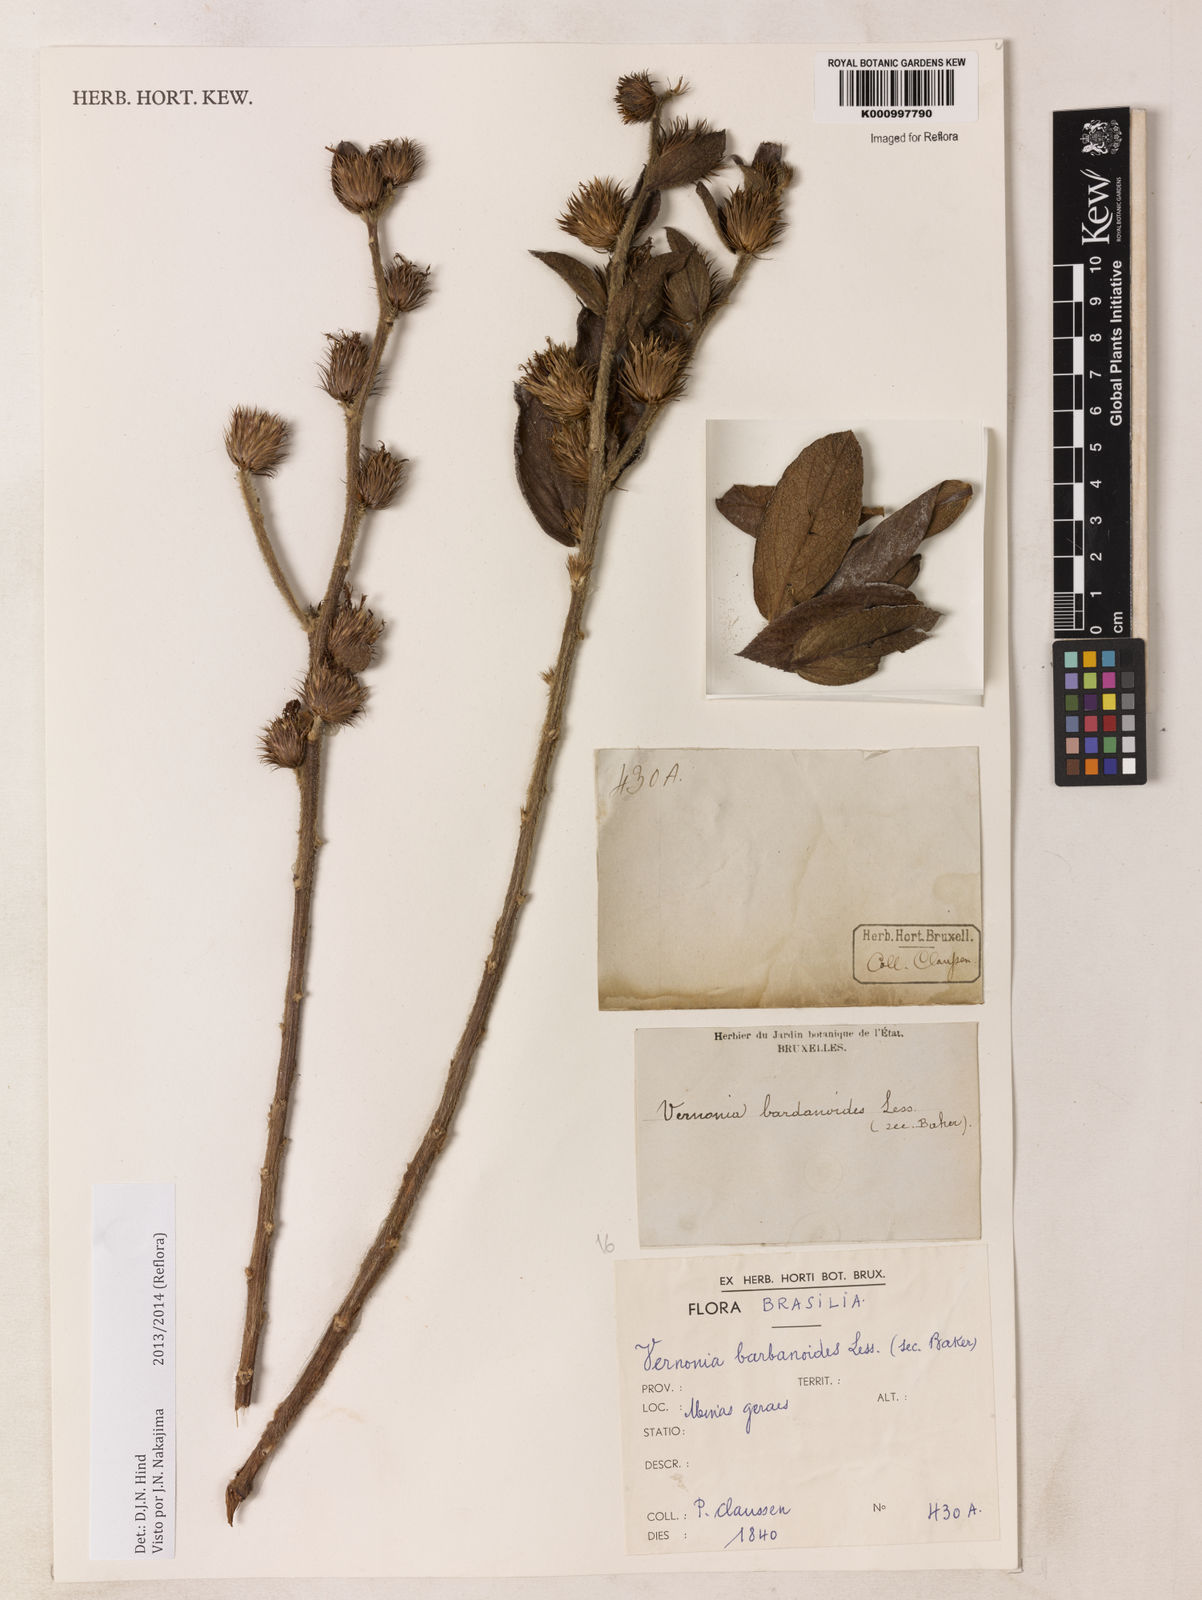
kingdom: Plantae
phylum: Tracheophyta
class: Magnoliopsida
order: Asterales
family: Asteraceae
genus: Lessingianthus
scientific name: Lessingianthus bardanioides
